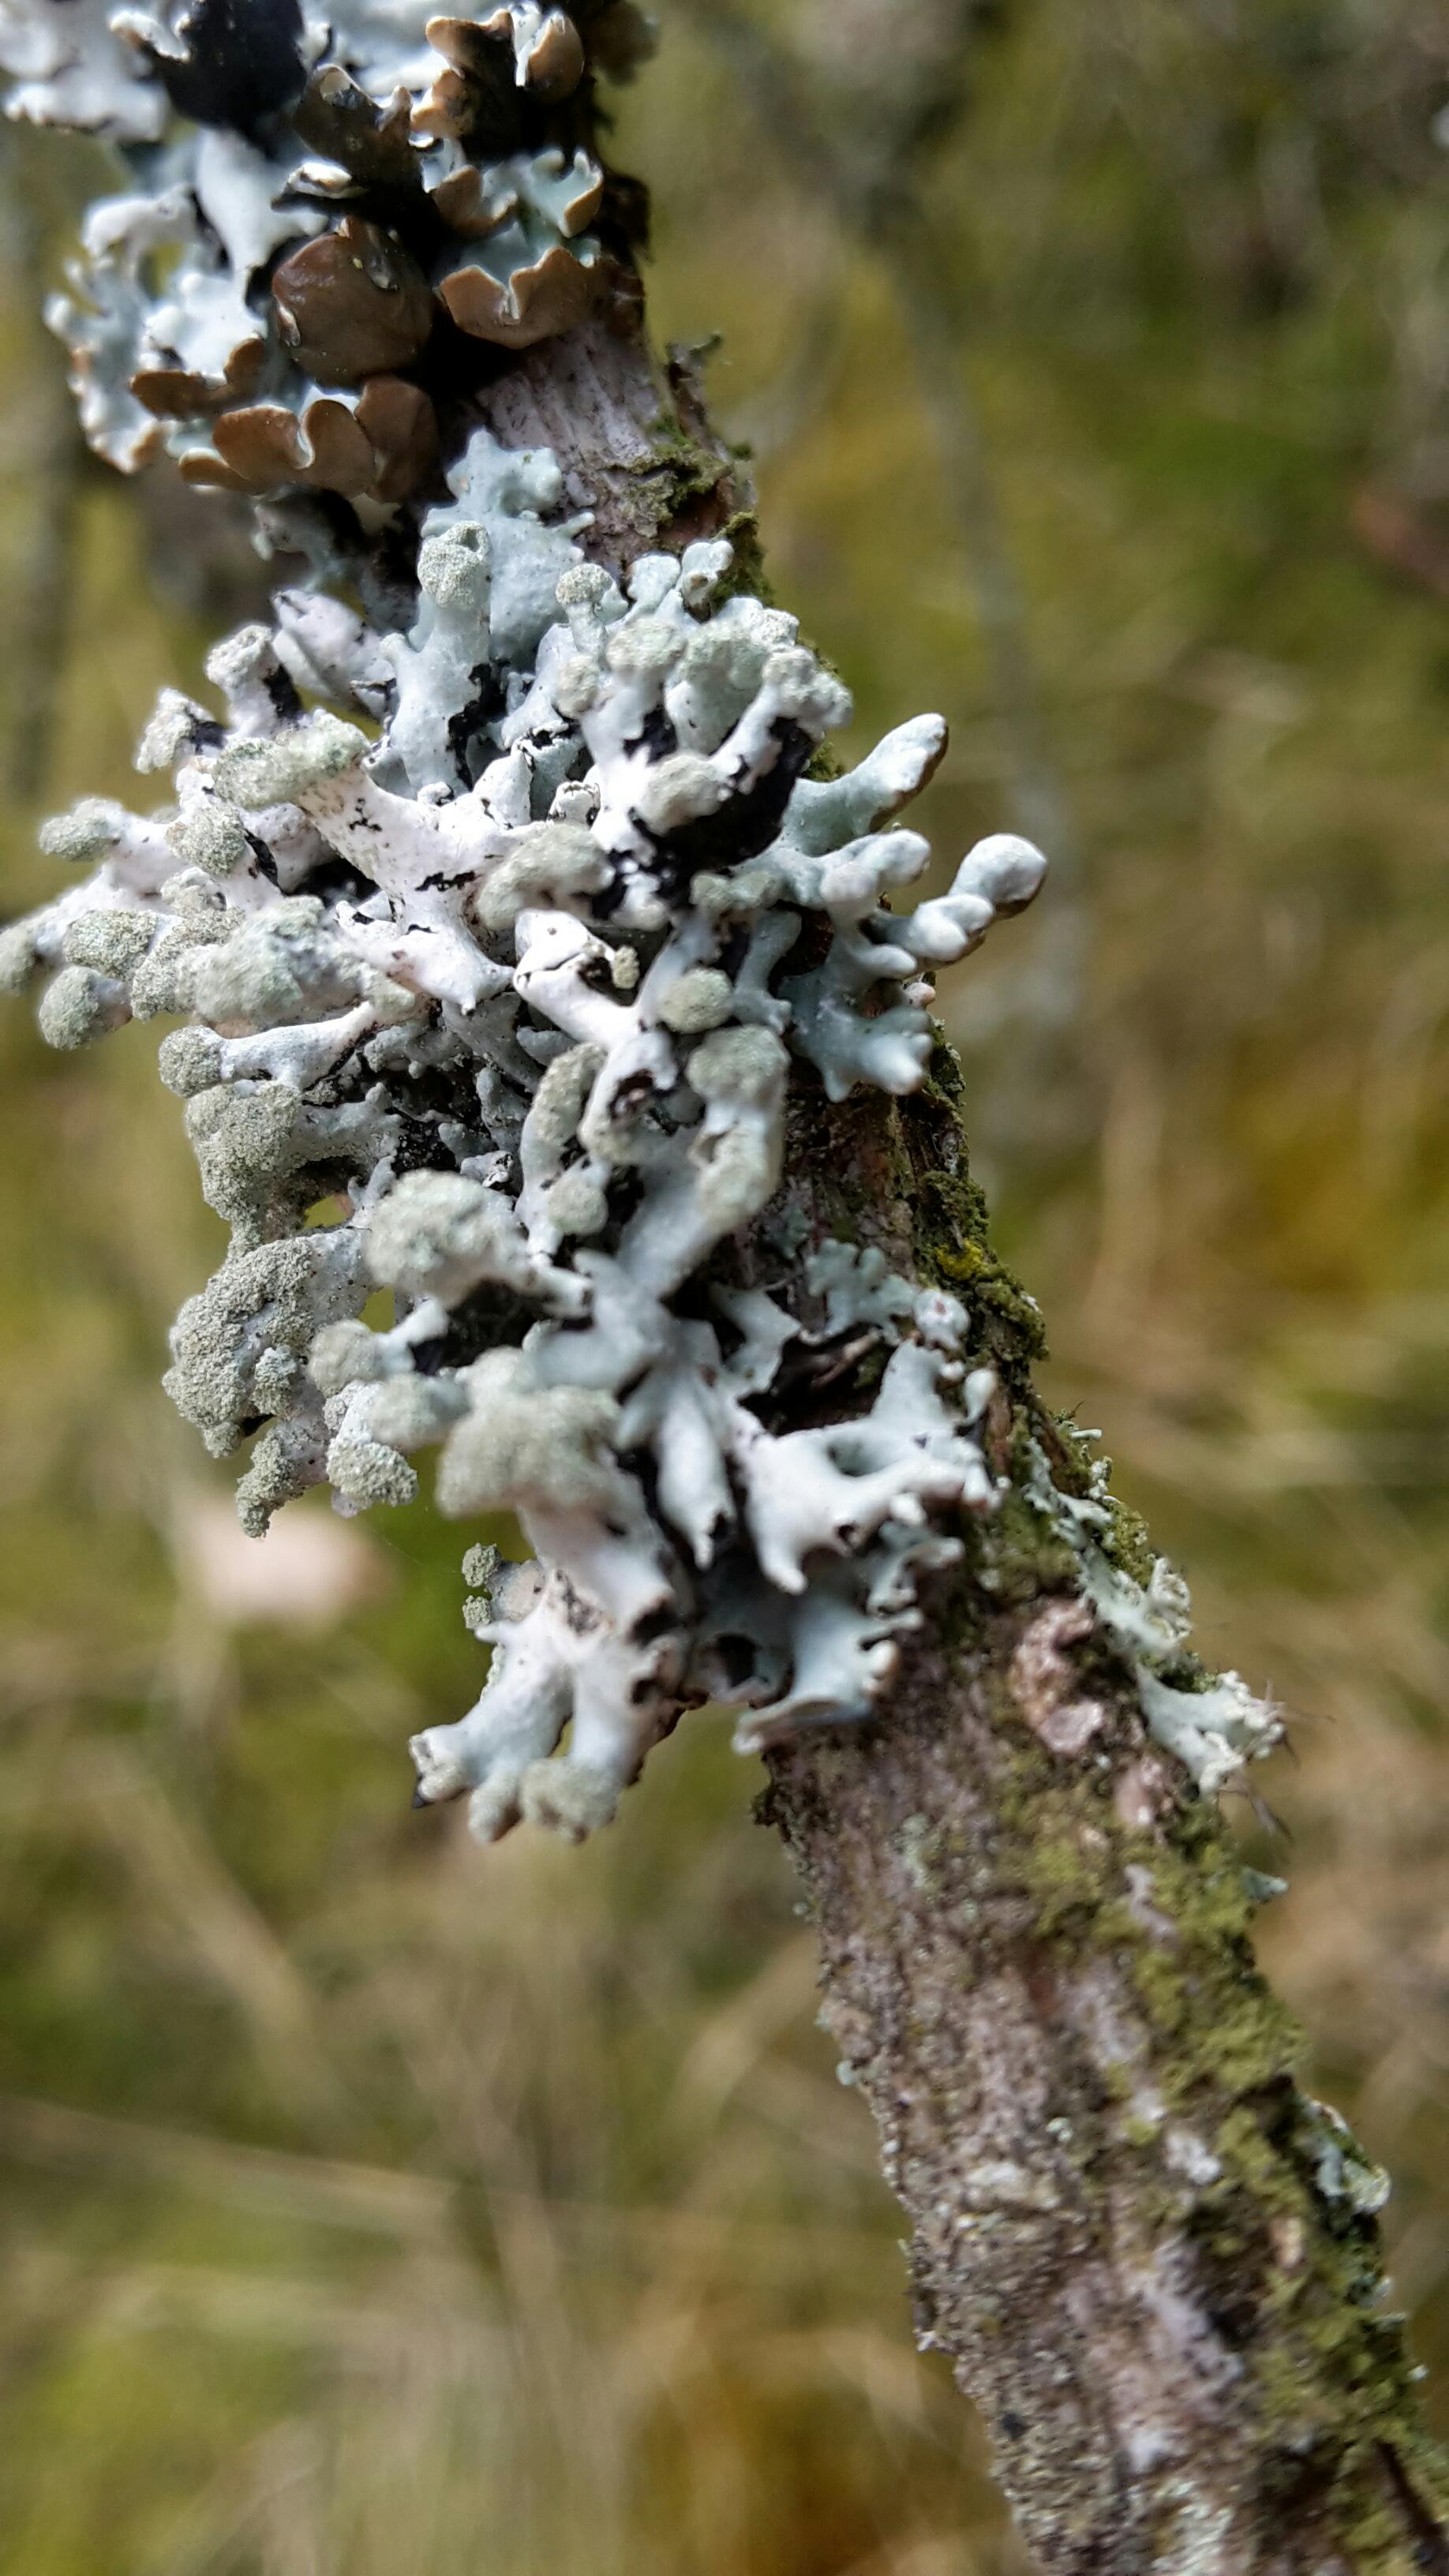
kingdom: Fungi
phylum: Ascomycota
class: Lecanoromycetes
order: Lecanorales
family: Parmeliaceae
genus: Hypogymnia
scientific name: Hypogymnia tubulosa
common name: finger-kvistlav
